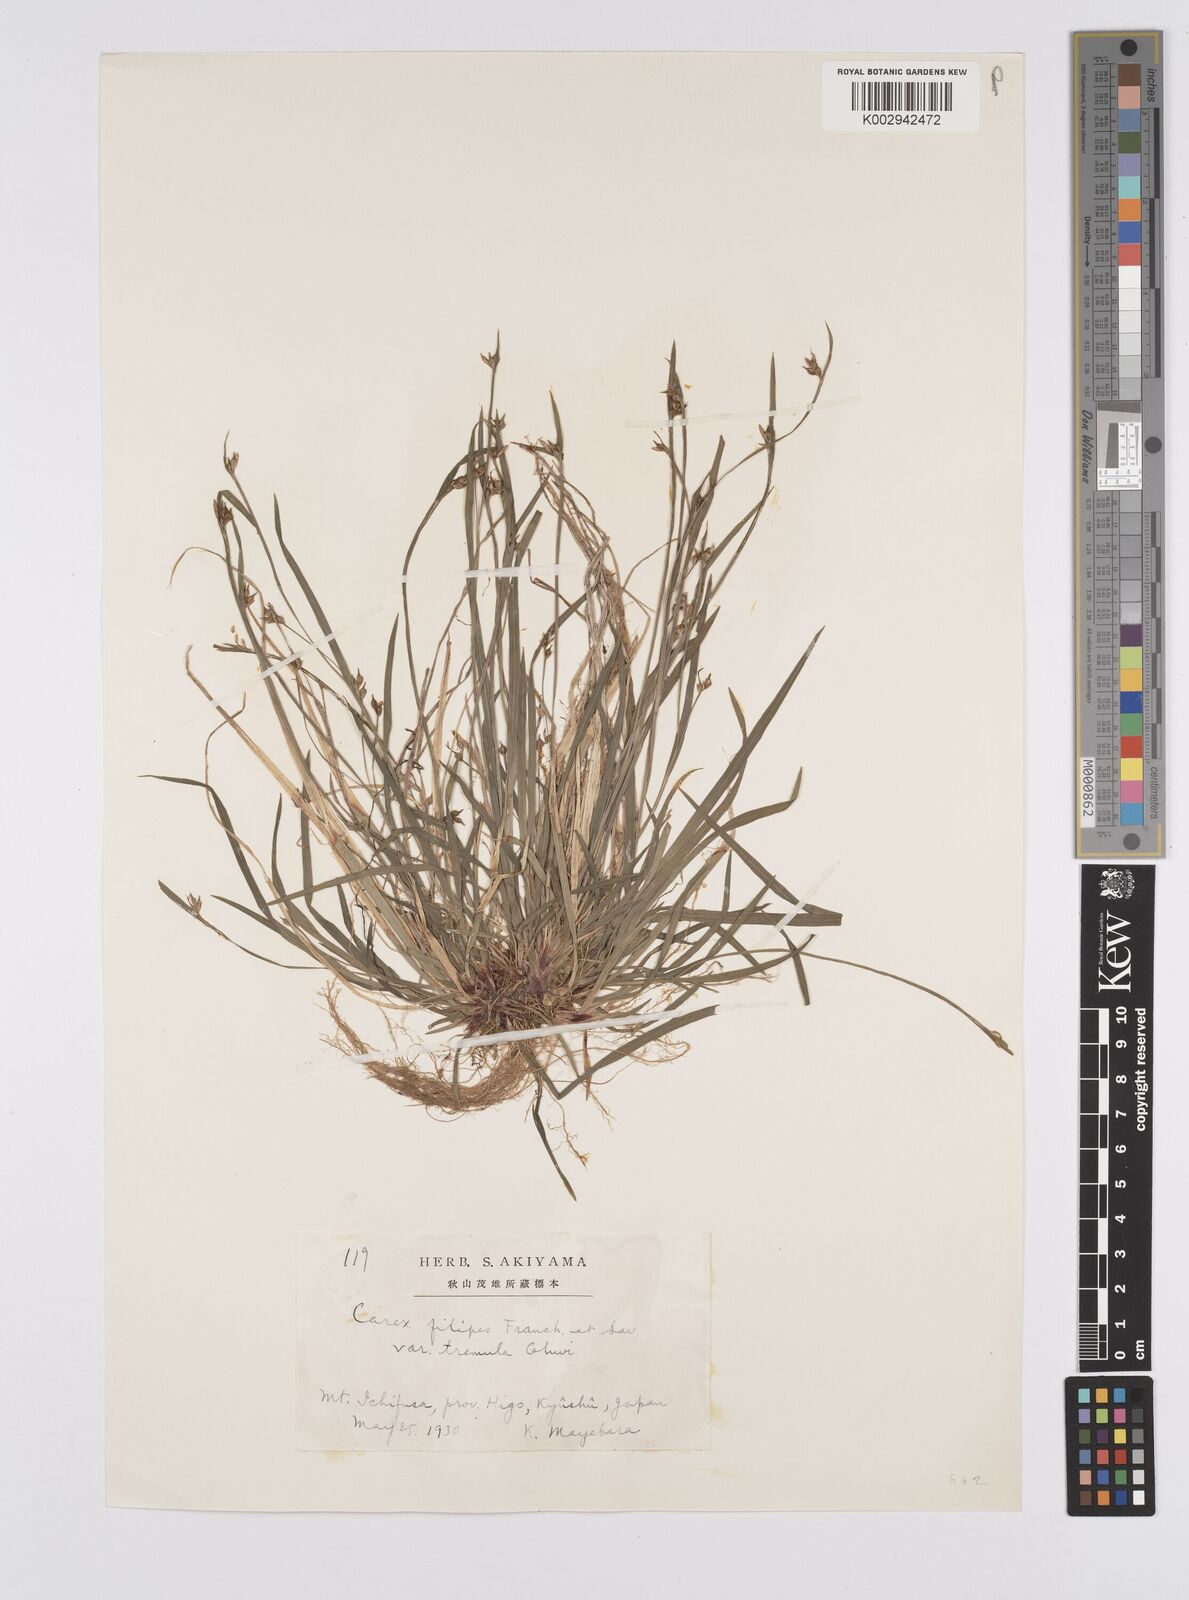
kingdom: Plantae
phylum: Tracheophyta
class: Liliopsida
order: Poales
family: Cyperaceae
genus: Carex
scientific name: Carex filipes
